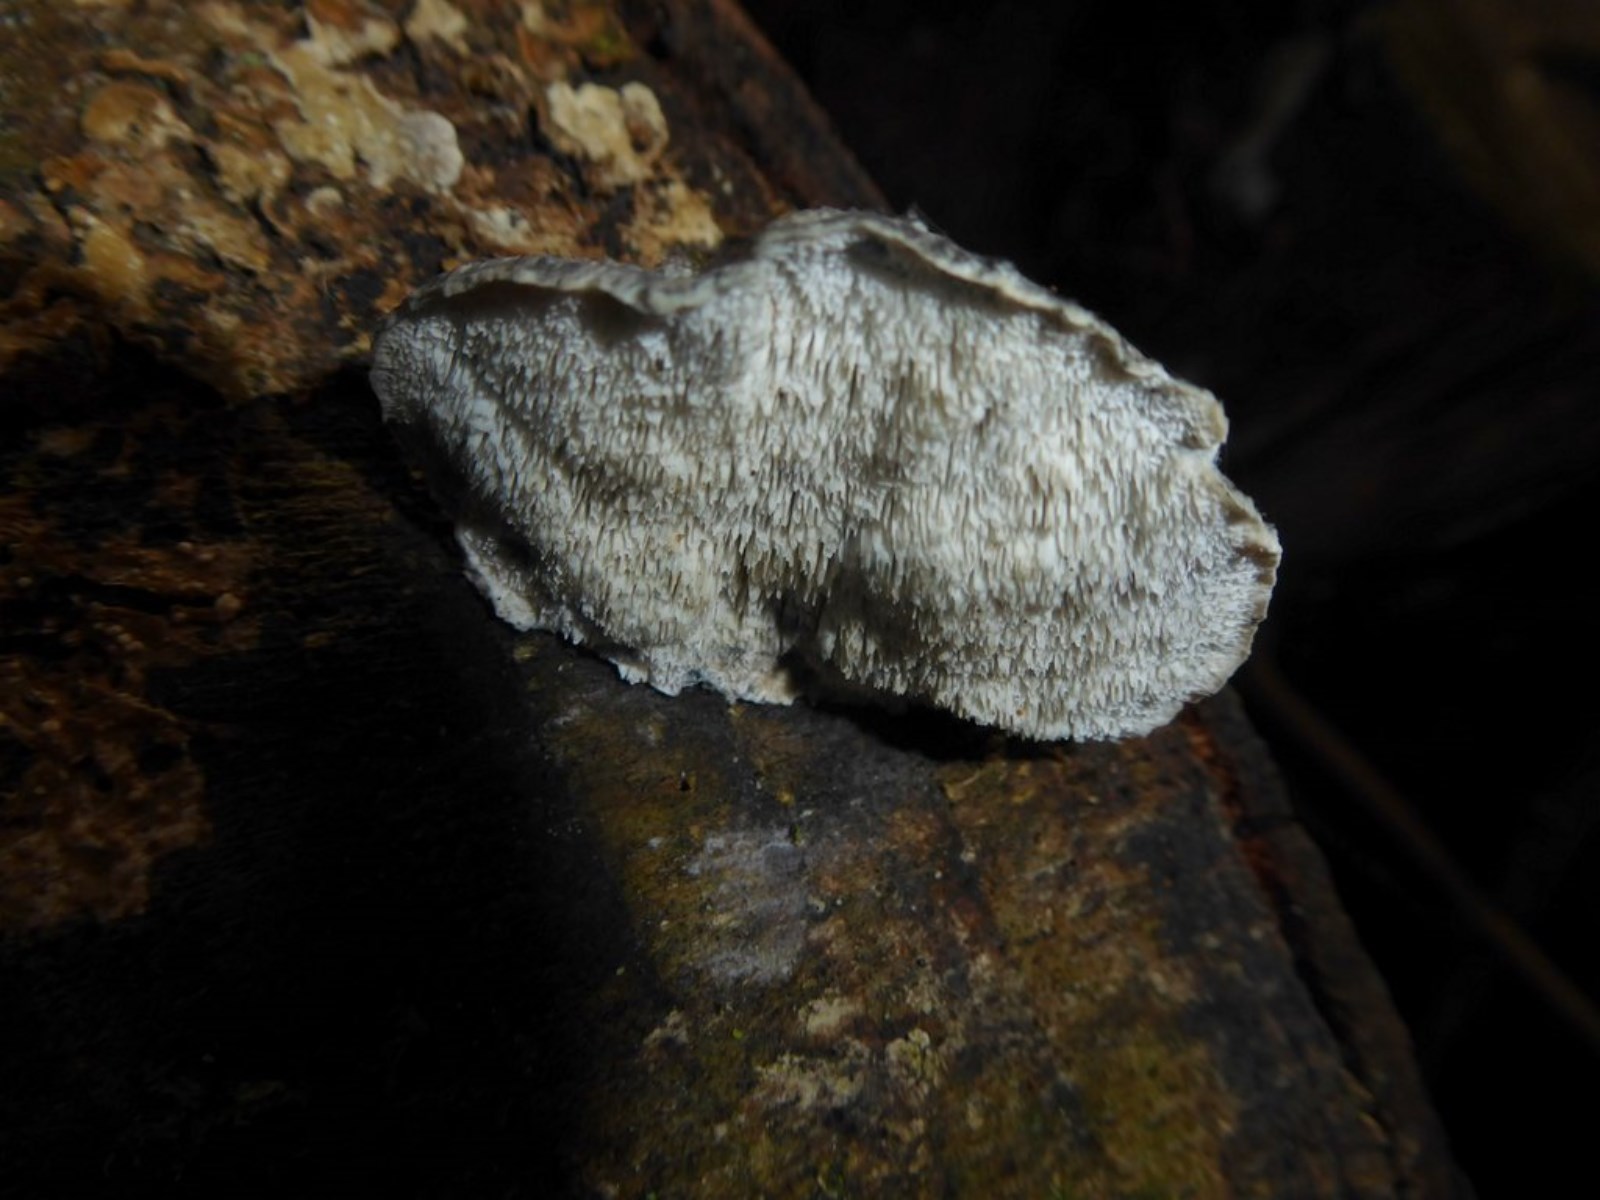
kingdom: Fungi
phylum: Basidiomycota
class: Agaricomycetes
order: Polyporales
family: Polyporaceae
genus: Cyanosporus
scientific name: Cyanosporus caesius
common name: blålig kødporesvamp
